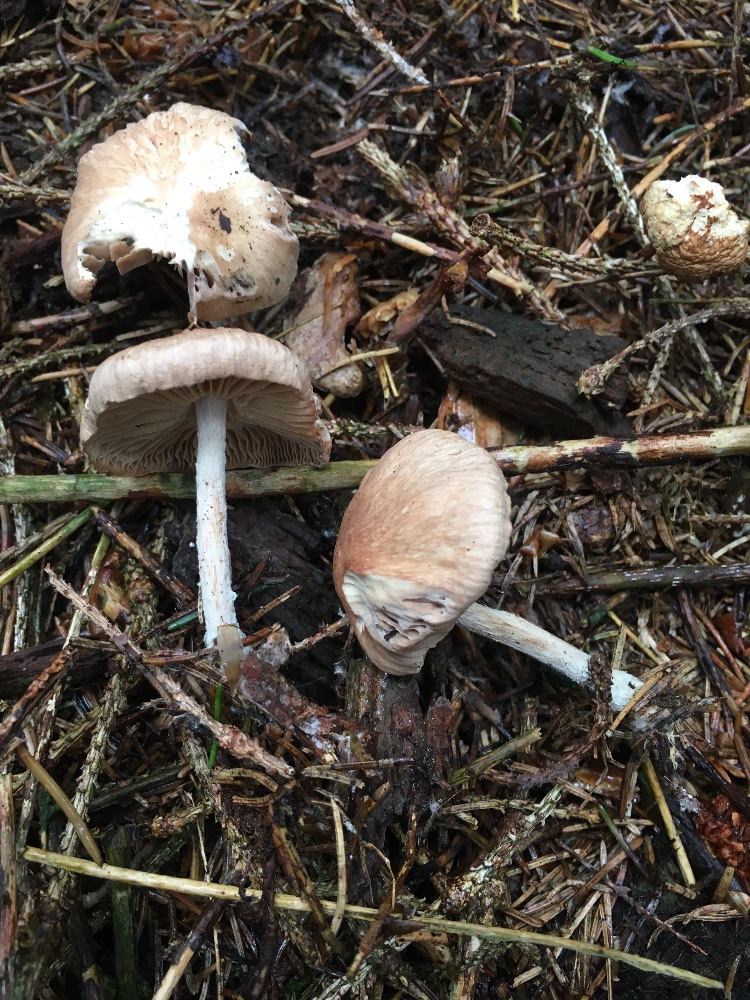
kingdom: Fungi
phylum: Basidiomycota
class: Agaricomycetes
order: Agaricales
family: Omphalotaceae
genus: Collybiopsis
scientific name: Collybiopsis peronata
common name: bestøvlet fladhat
